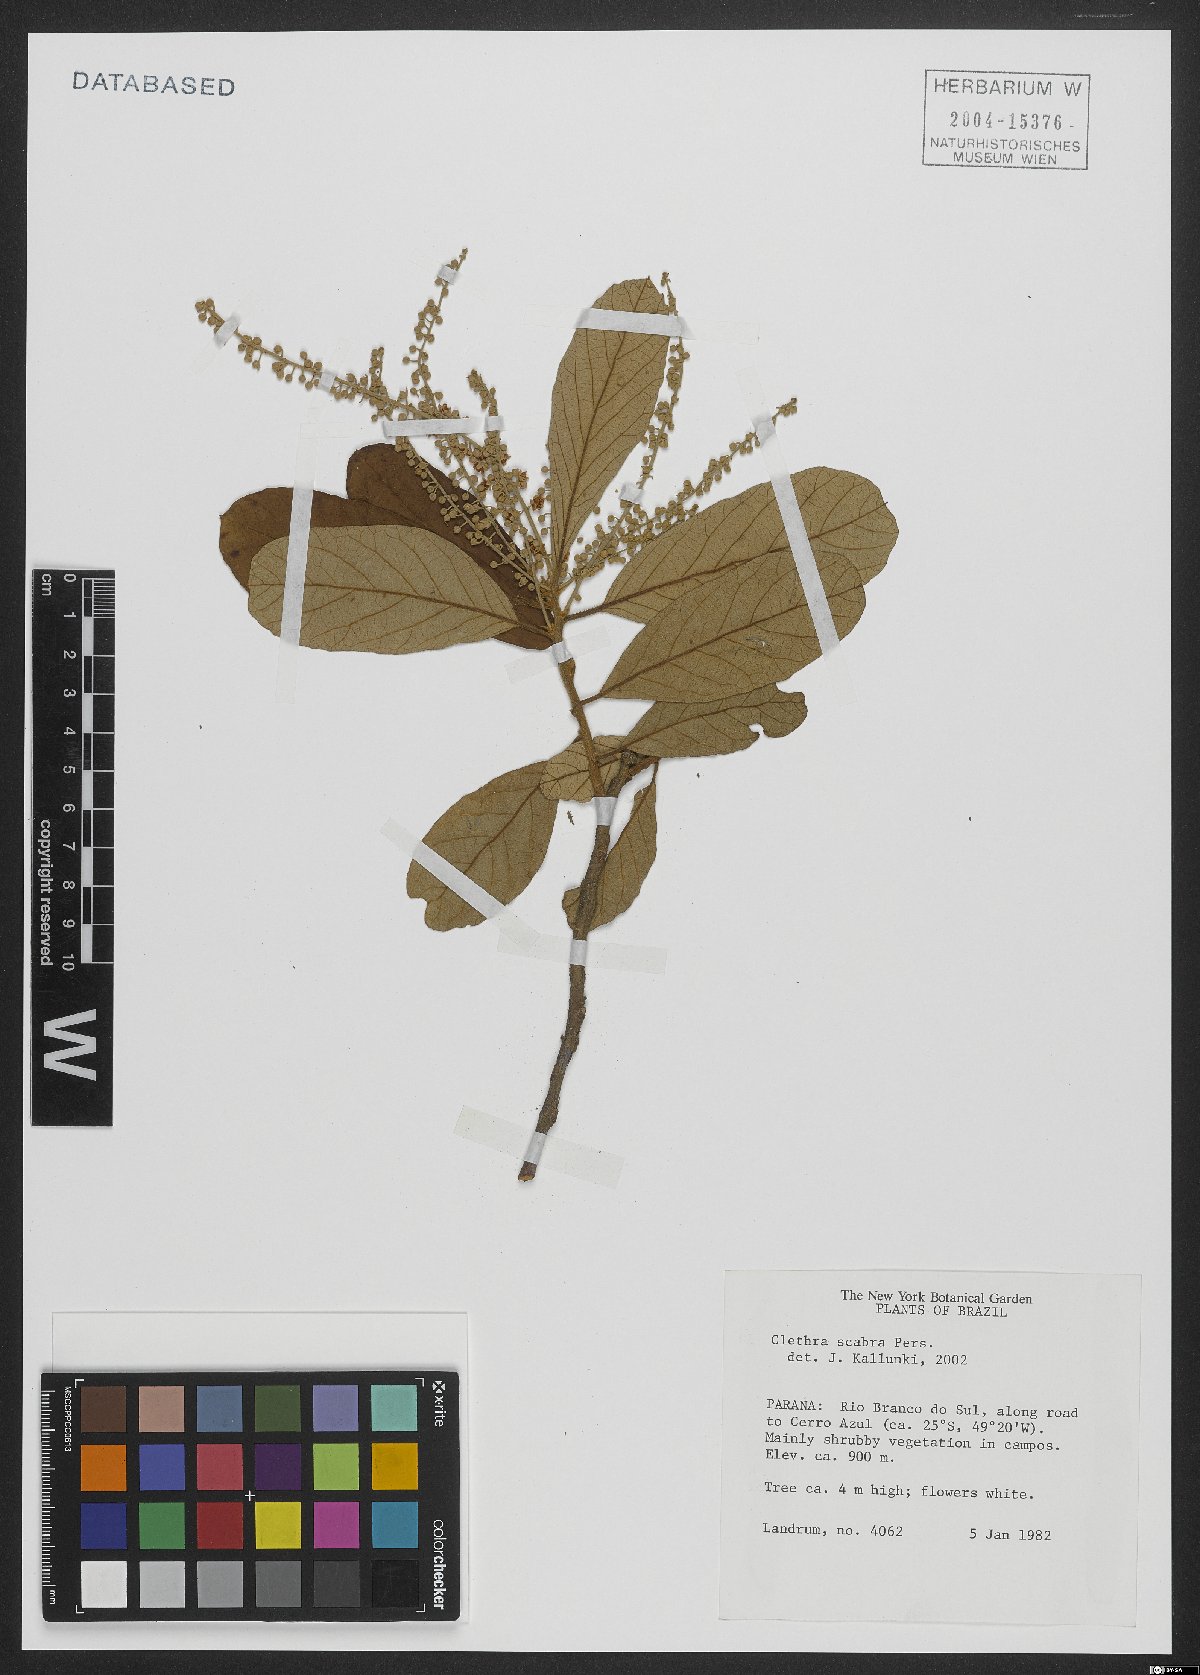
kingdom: Plantae
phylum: Tracheophyta
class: Magnoliopsida
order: Ericales
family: Clethraceae
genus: Clethra
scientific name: Clethra scabra
